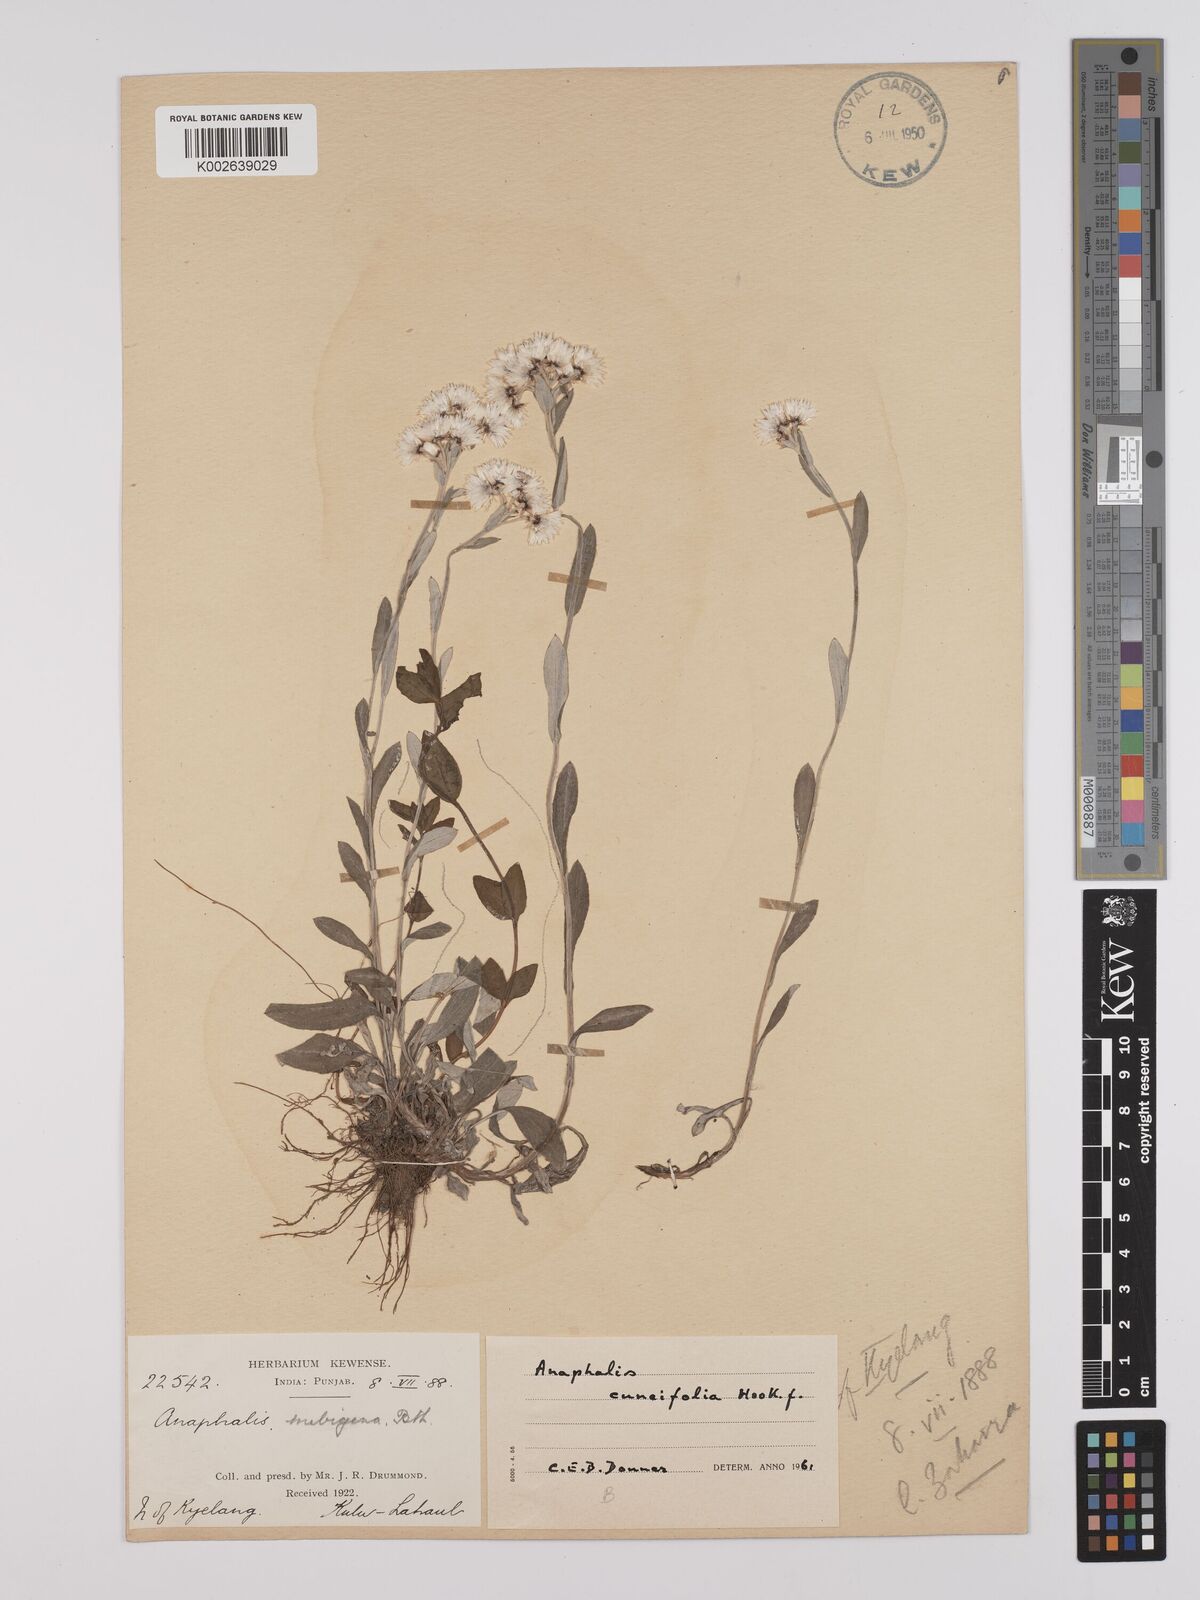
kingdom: Plantae
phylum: Tracheophyta
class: Magnoliopsida
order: Asterales
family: Asteraceae
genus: Anaphalis
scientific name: Anaphalis nepalensis
